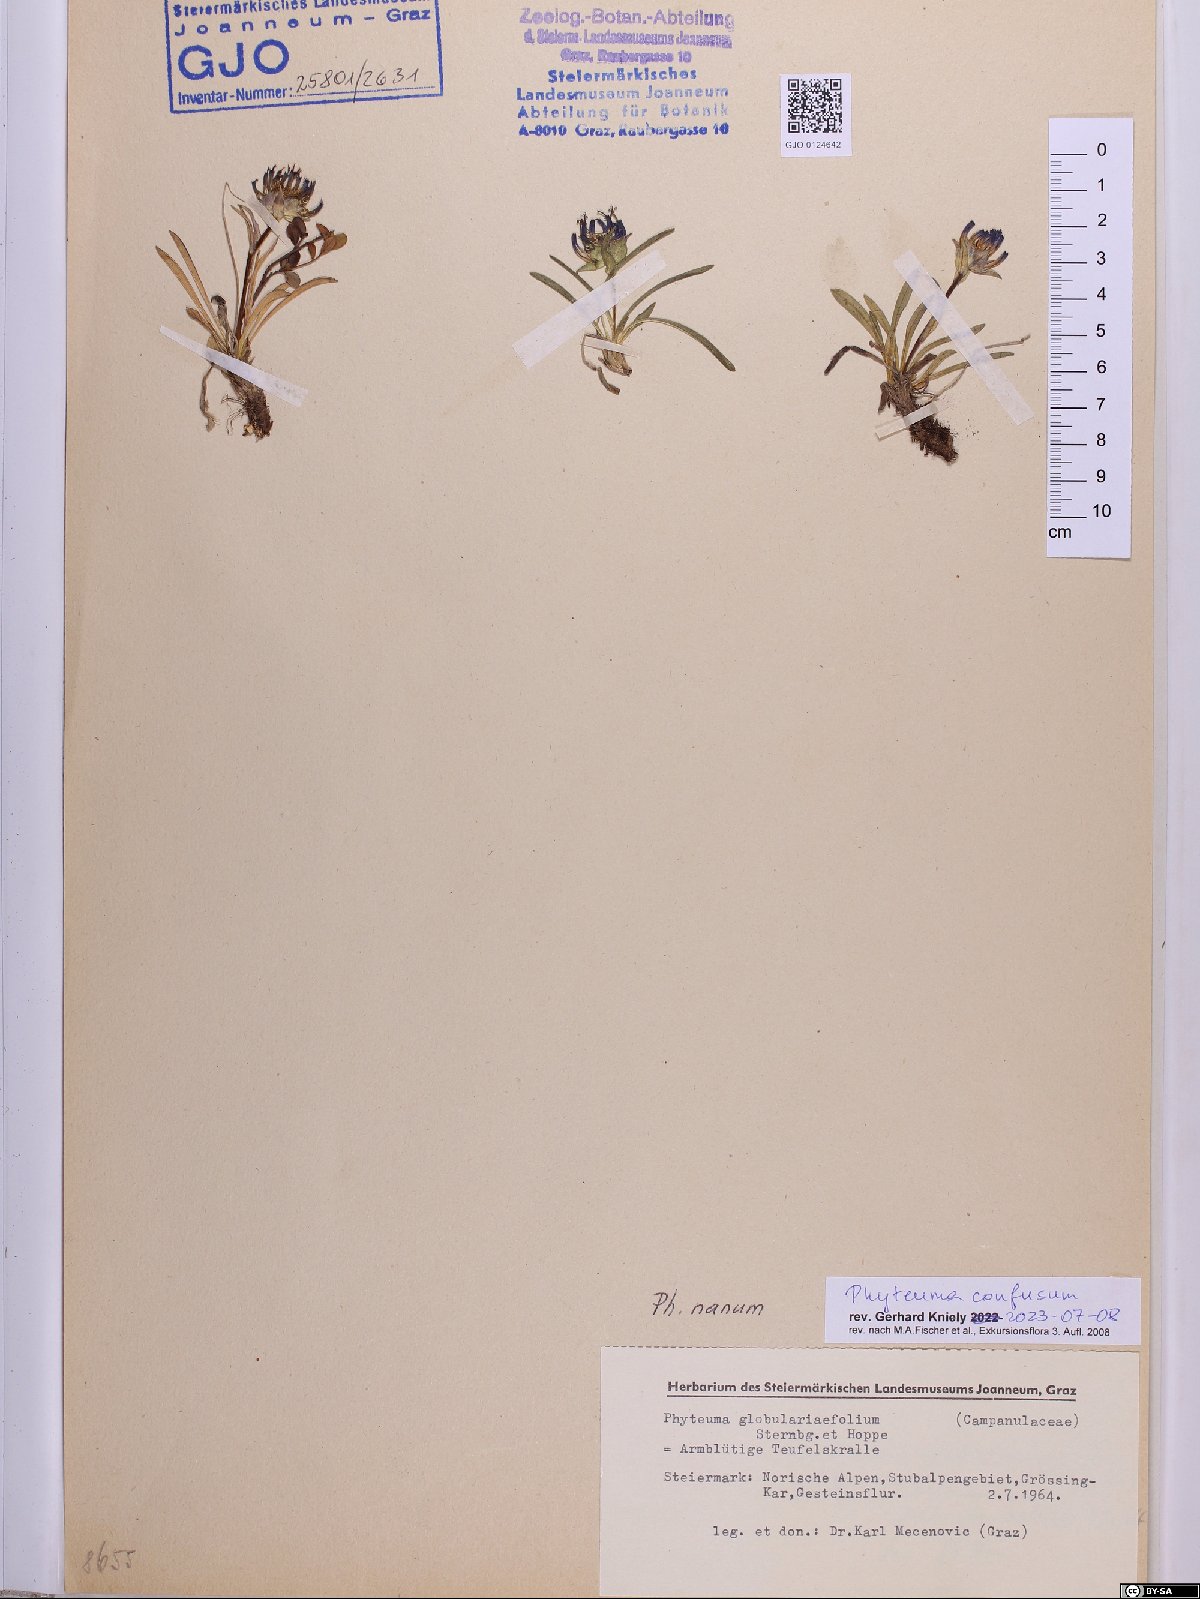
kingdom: Plantae
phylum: Tracheophyta
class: Magnoliopsida
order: Asterales
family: Campanulaceae
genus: Phyteuma
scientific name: Phyteuma confusum
